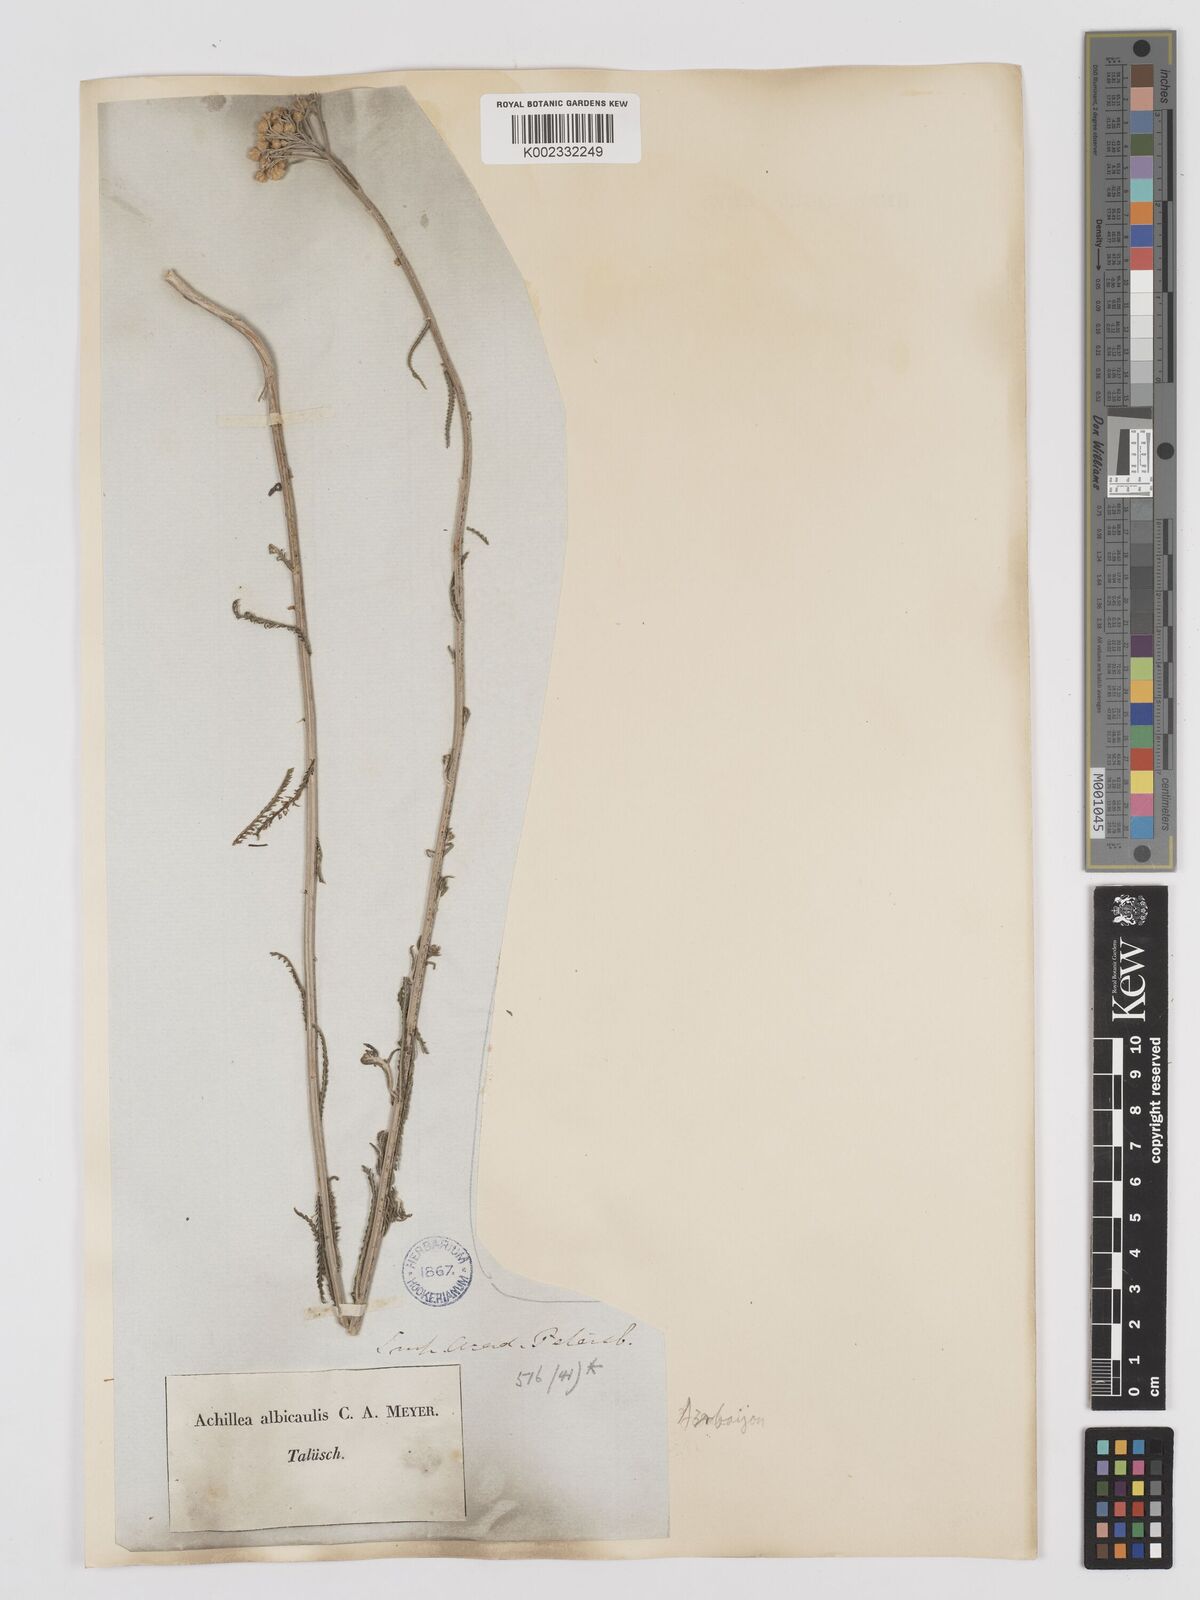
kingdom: Plantae
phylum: Tracheophyta
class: Magnoliopsida
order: Asterales
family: Asteraceae
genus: Achillea
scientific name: Achillea tenuifolia
